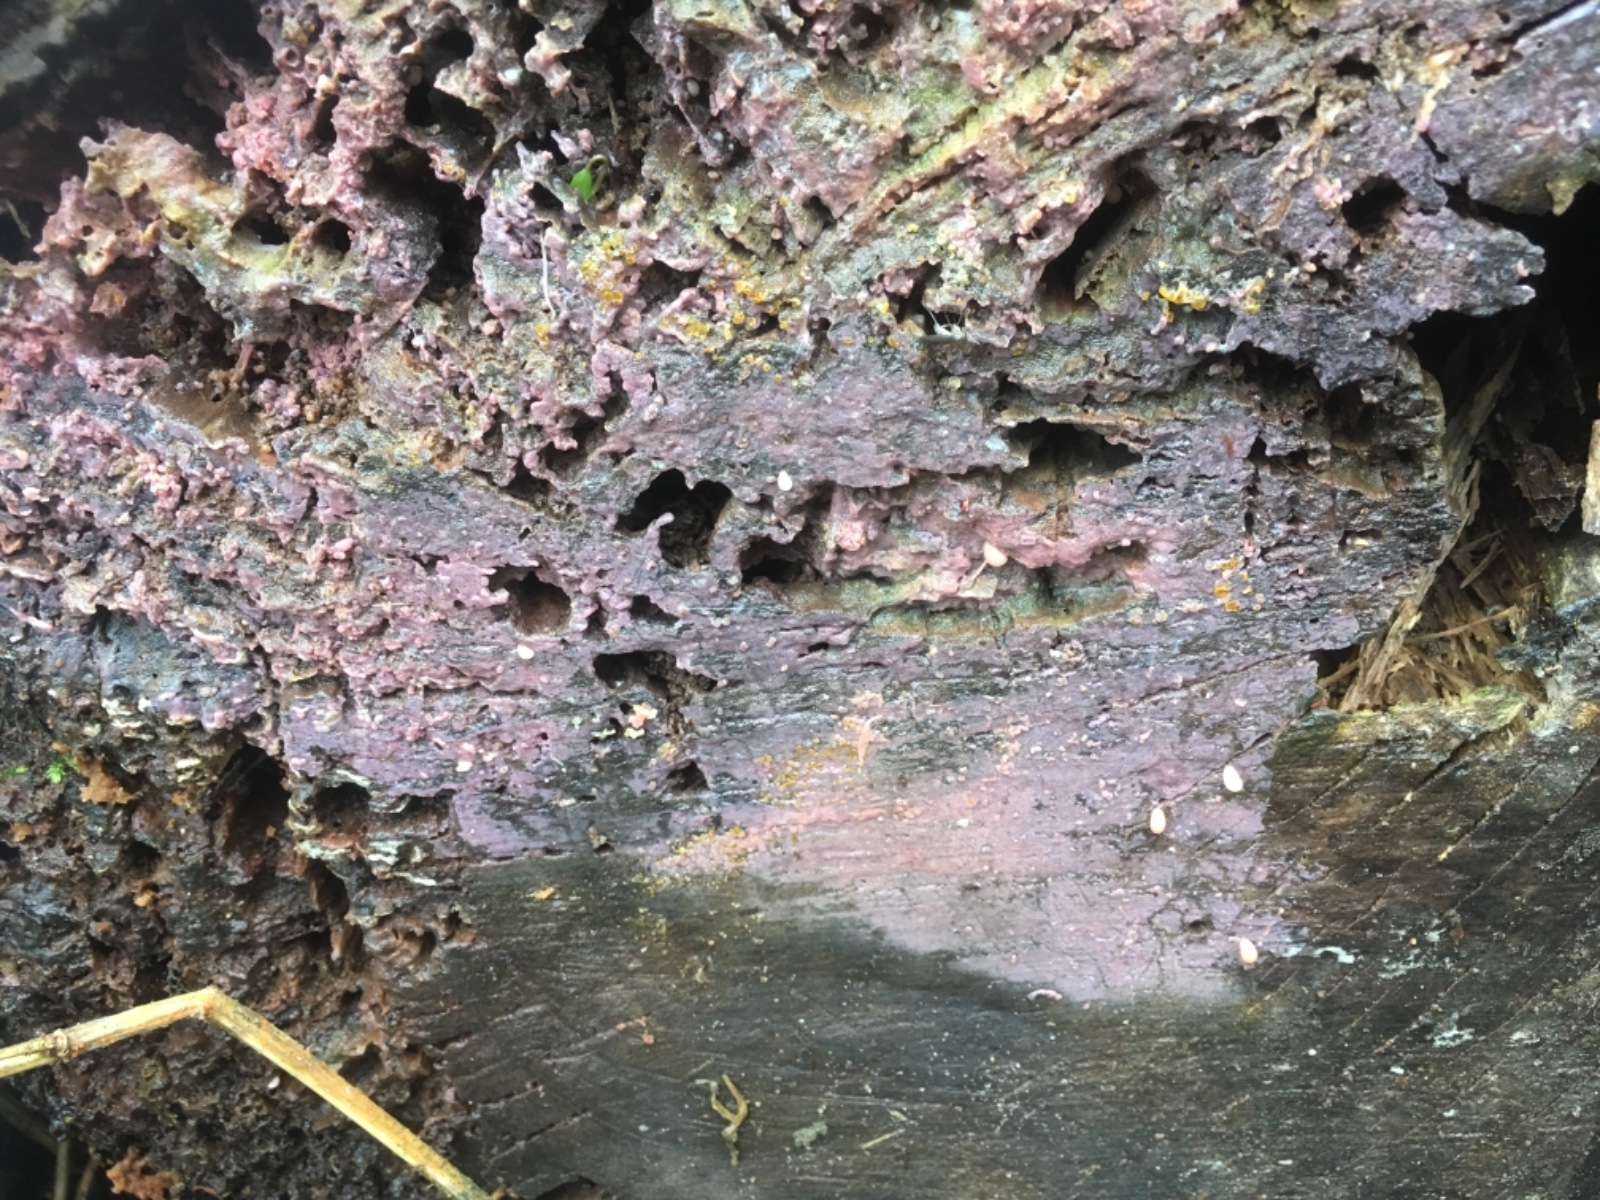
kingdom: Fungi
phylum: Basidiomycota
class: Agaricomycetes
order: Cantharellales
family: Tulasnellaceae
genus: Tulasnella
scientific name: Tulasnella violea
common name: violet ballonhinde
